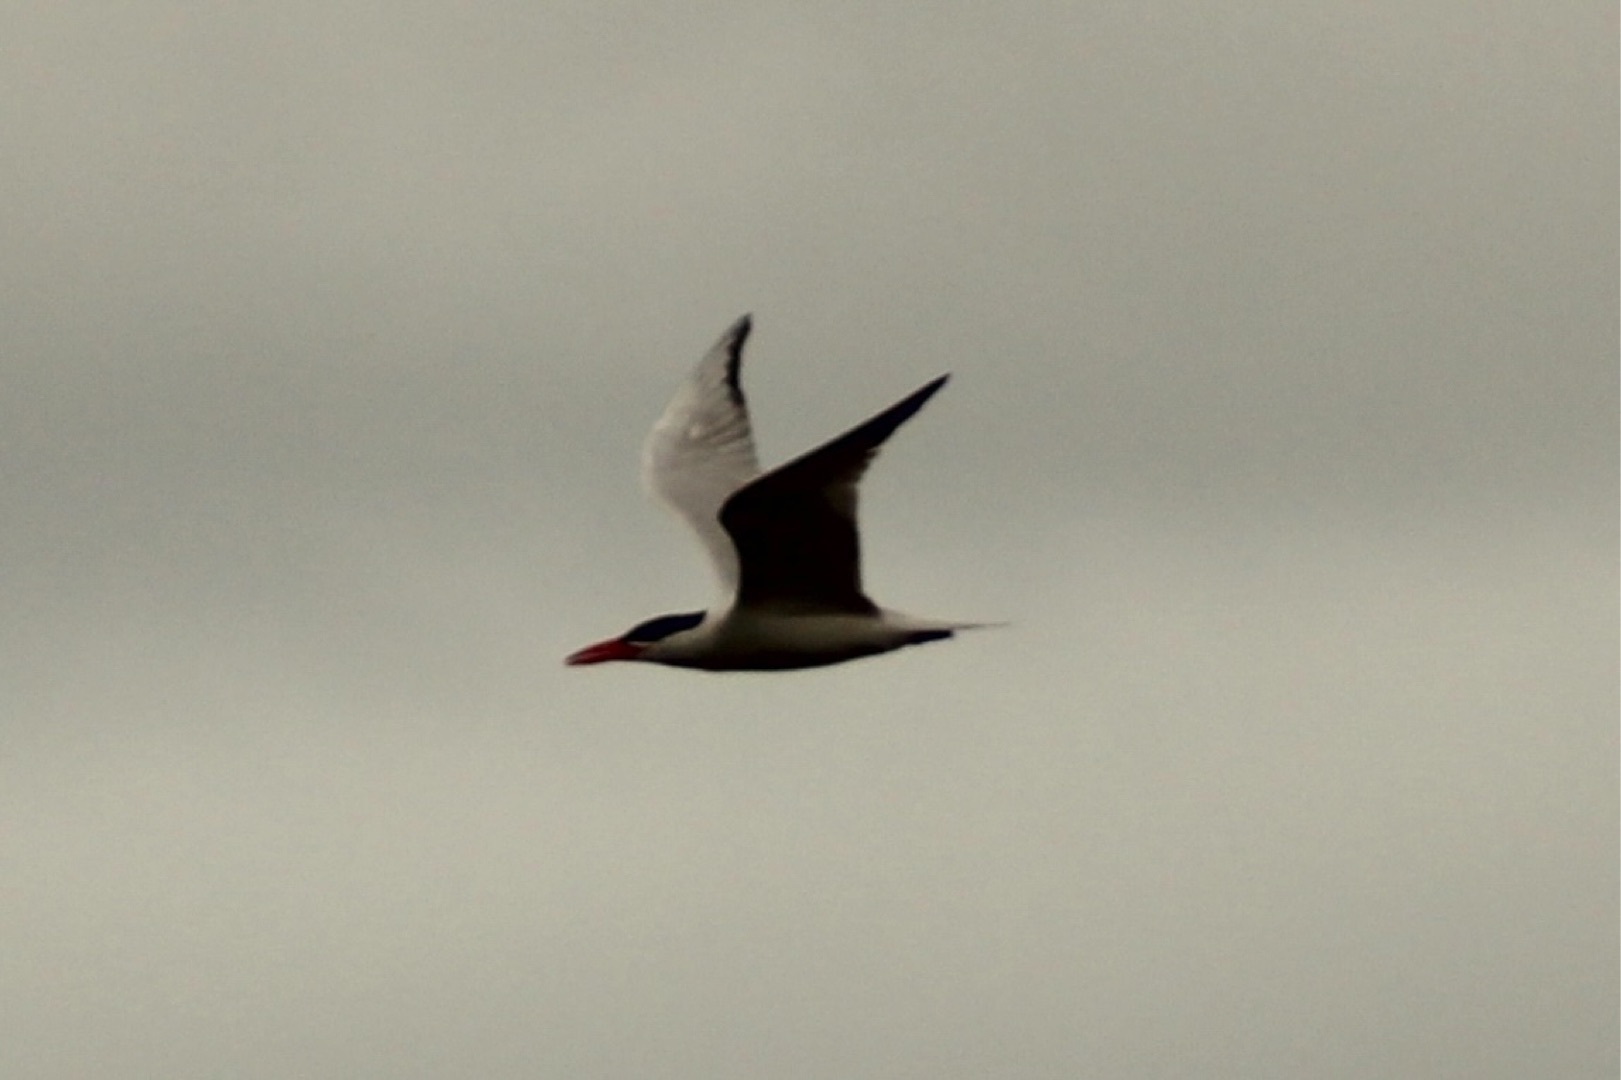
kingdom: Animalia
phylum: Chordata
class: Aves
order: Charadriiformes
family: Laridae
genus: Hydroprogne
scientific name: Hydroprogne caspia
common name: Rovterne
